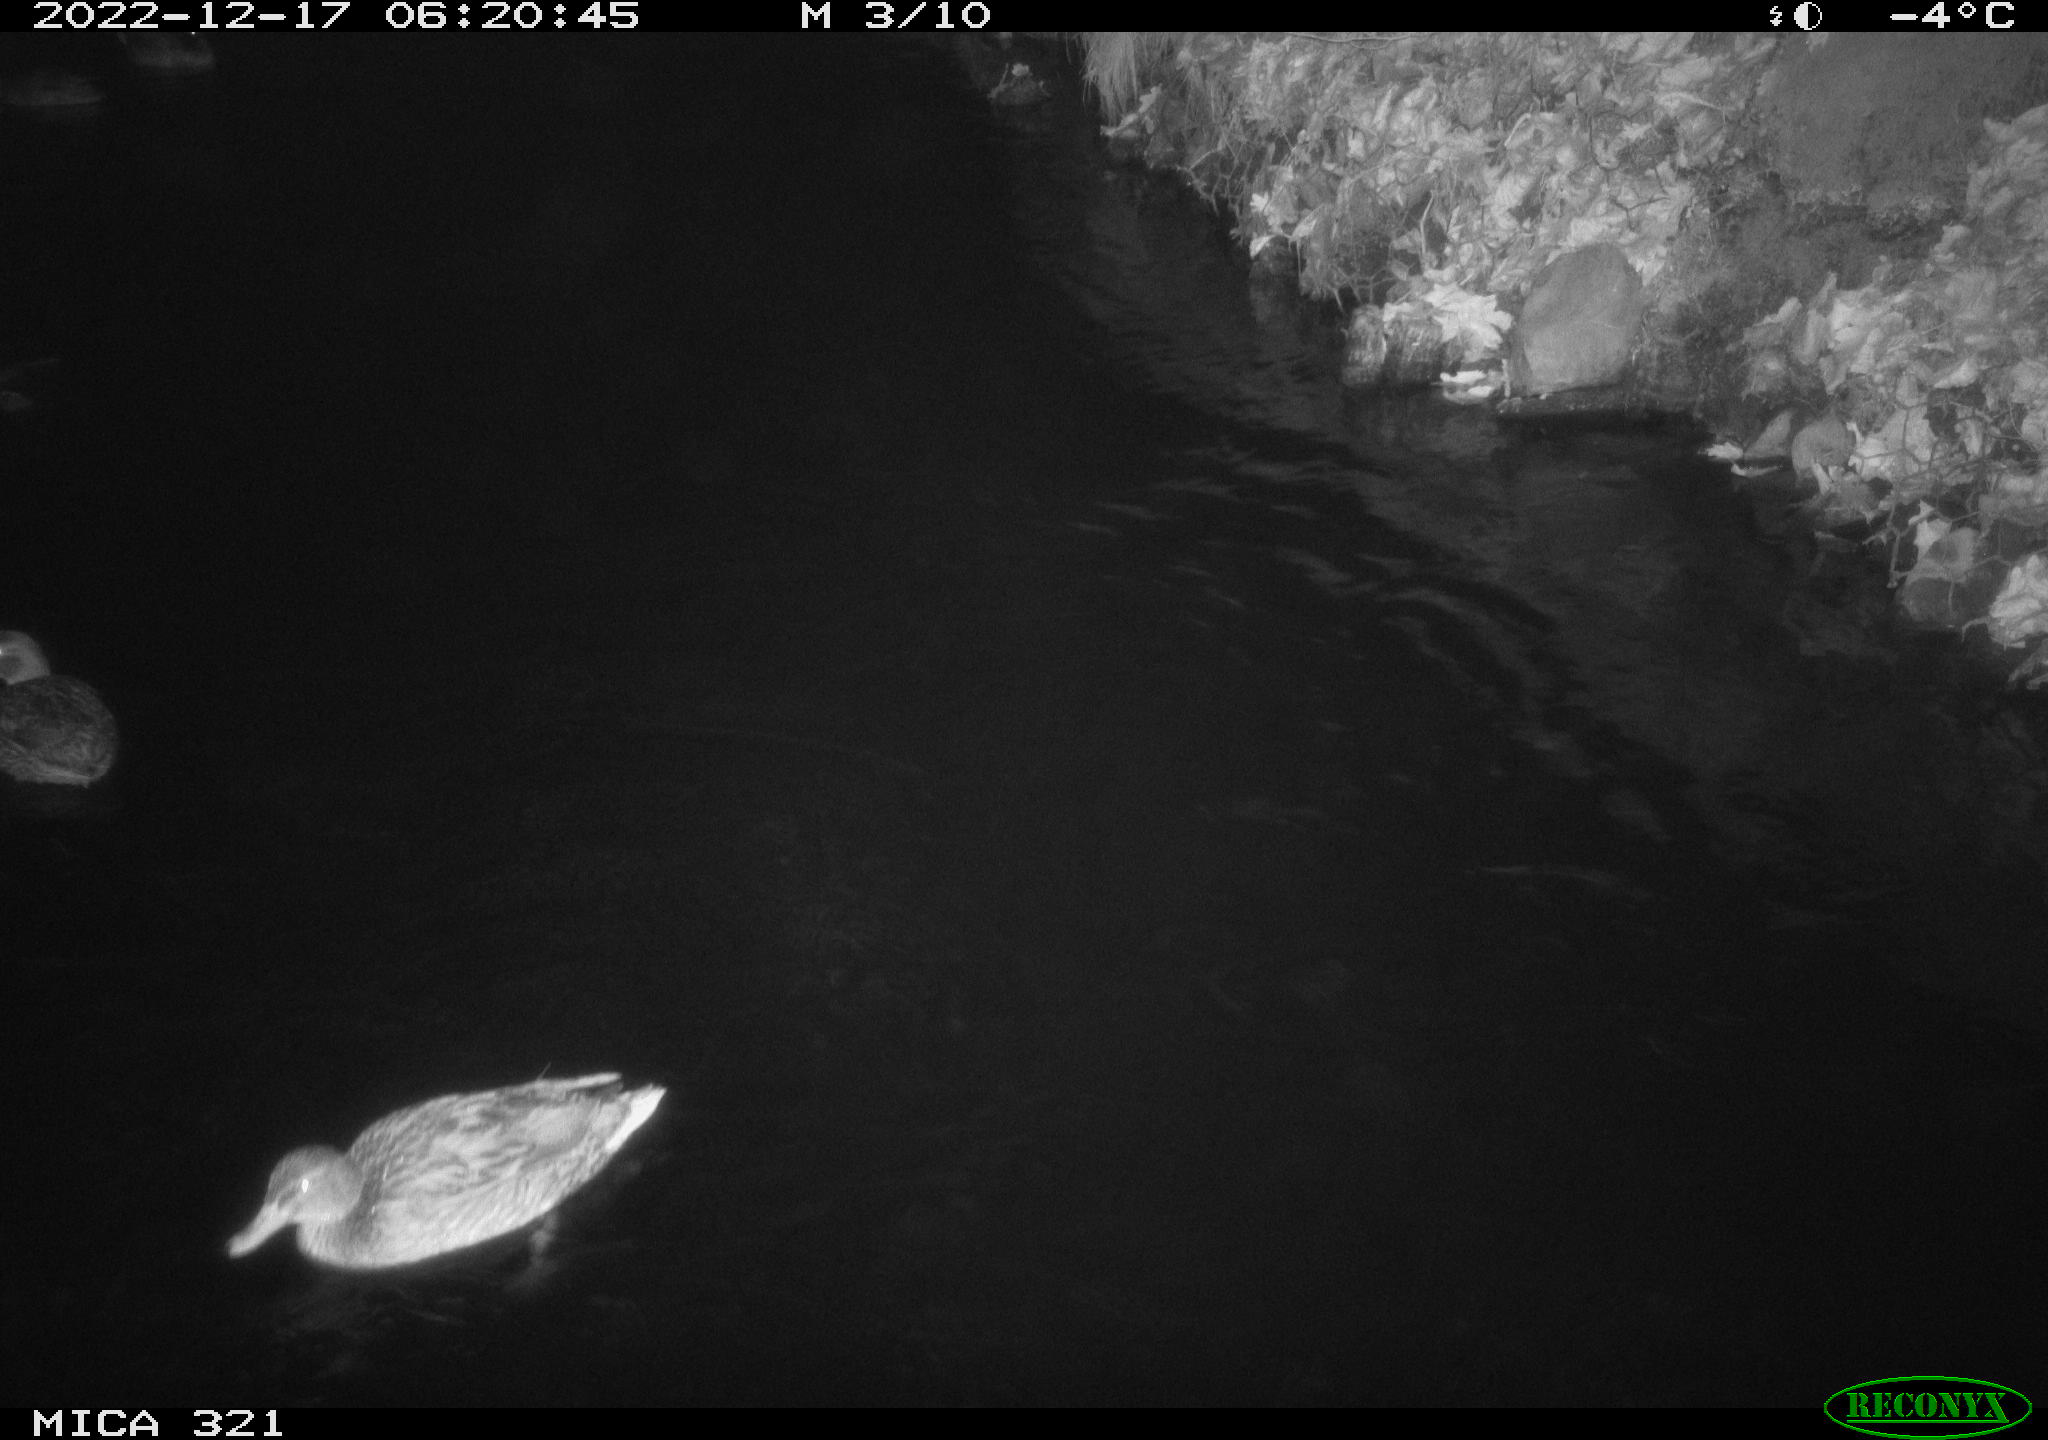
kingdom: Animalia
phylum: Chordata
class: Aves
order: Anseriformes
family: Anatidae
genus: Anas
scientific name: Anas
